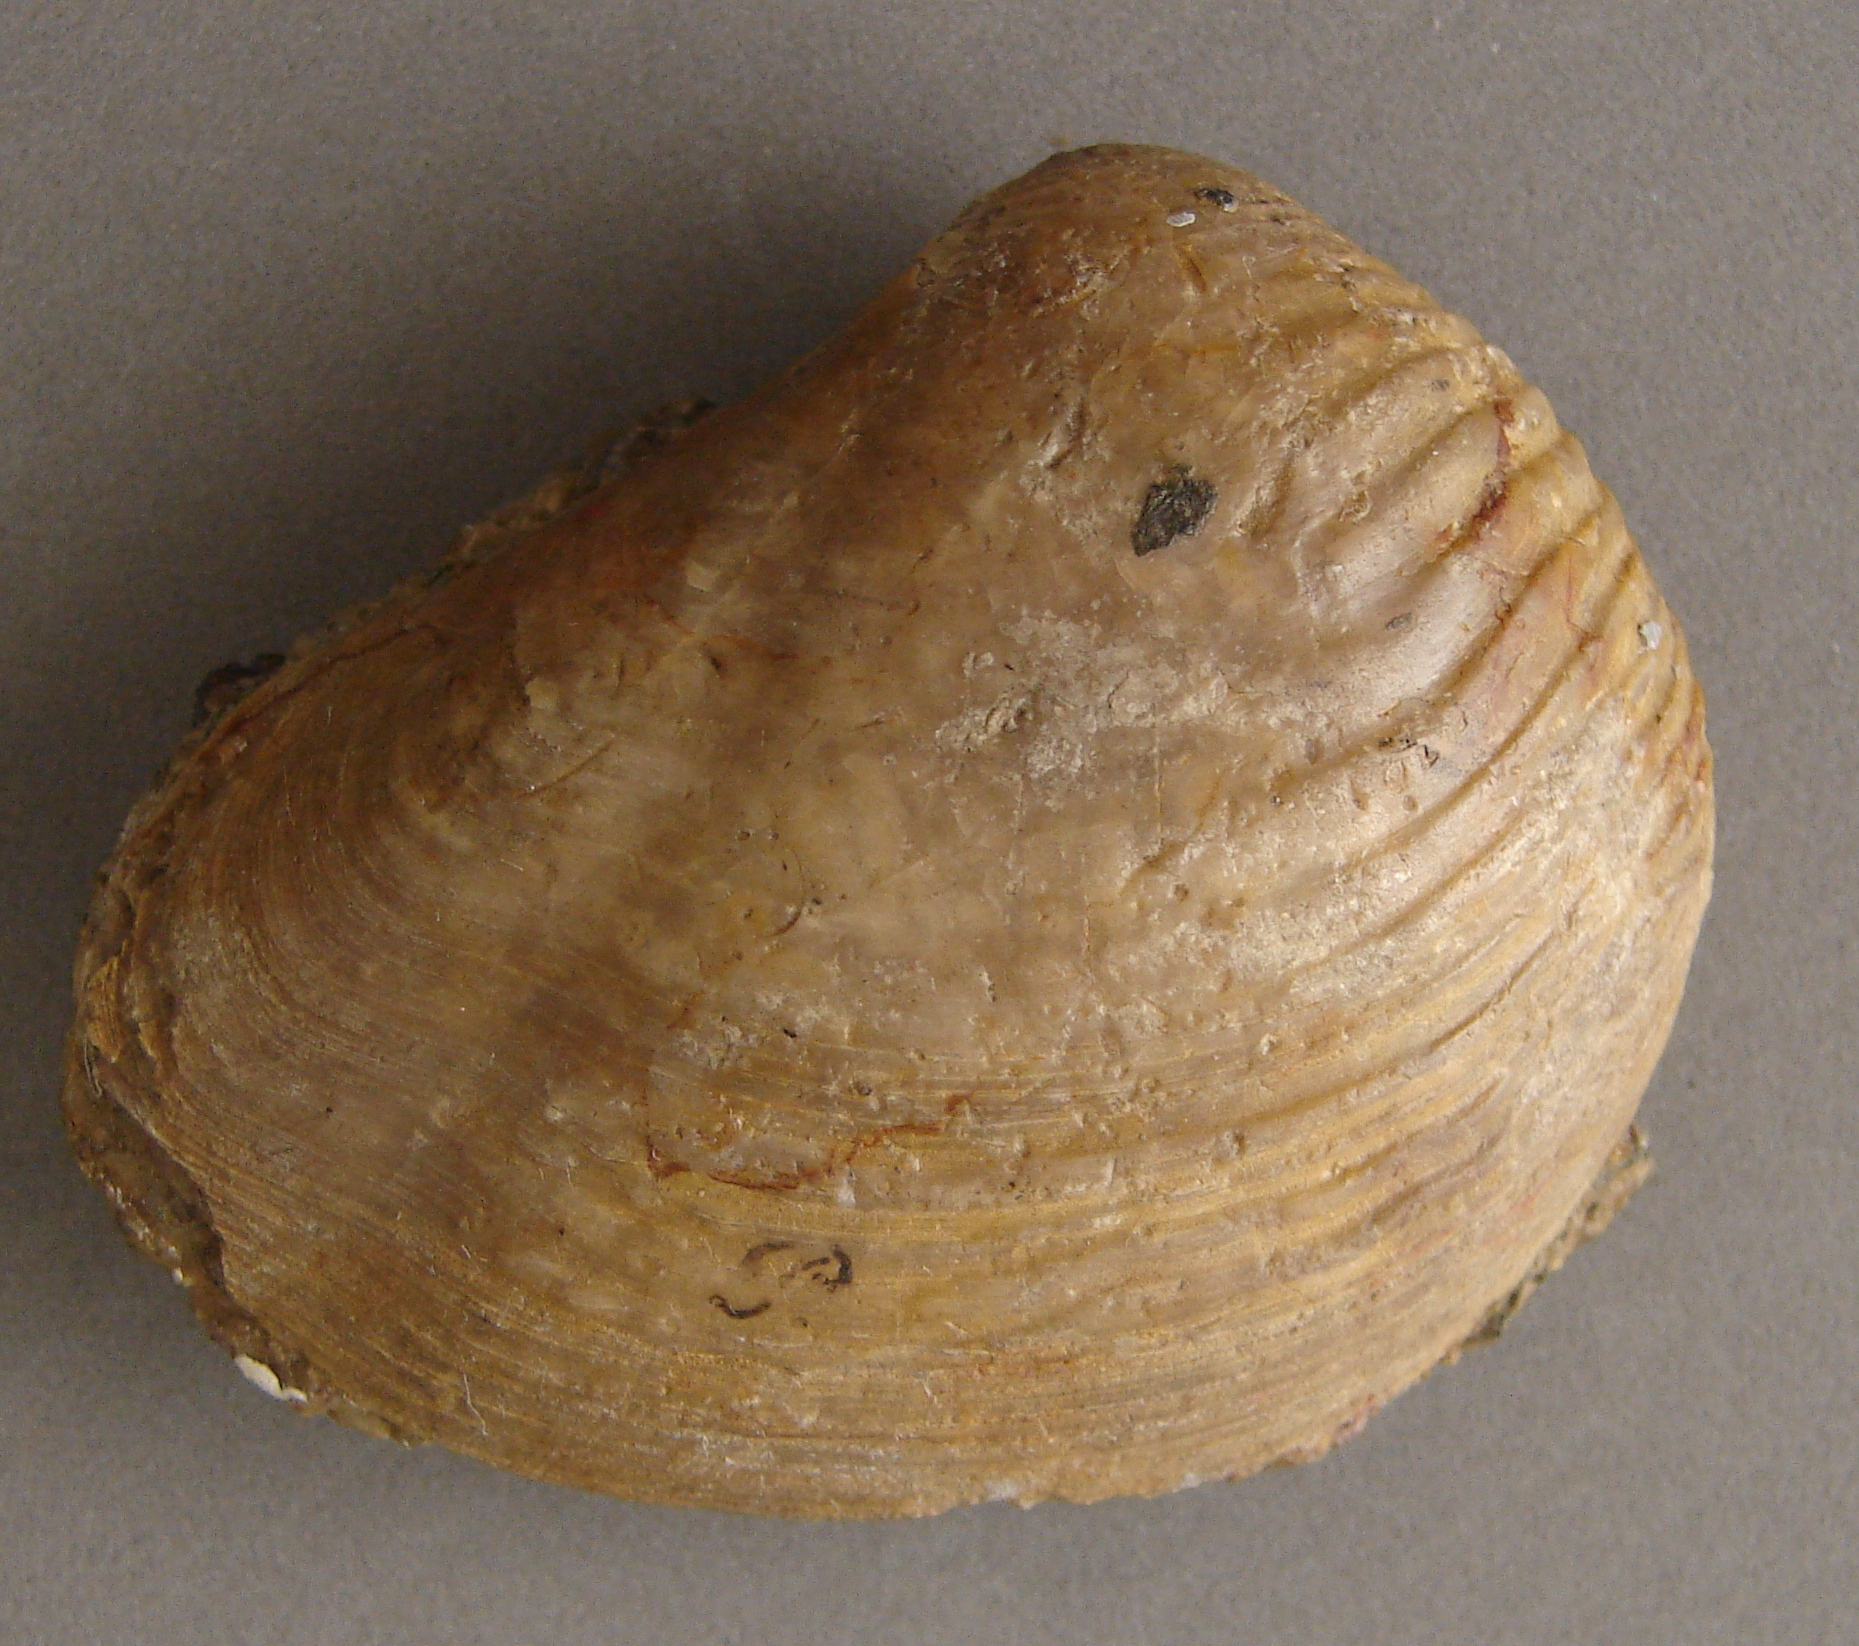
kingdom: Animalia
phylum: Mollusca
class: Bivalvia
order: Trigoniida
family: Trigoniidae
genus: Trigonia
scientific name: Trigonia boidini
